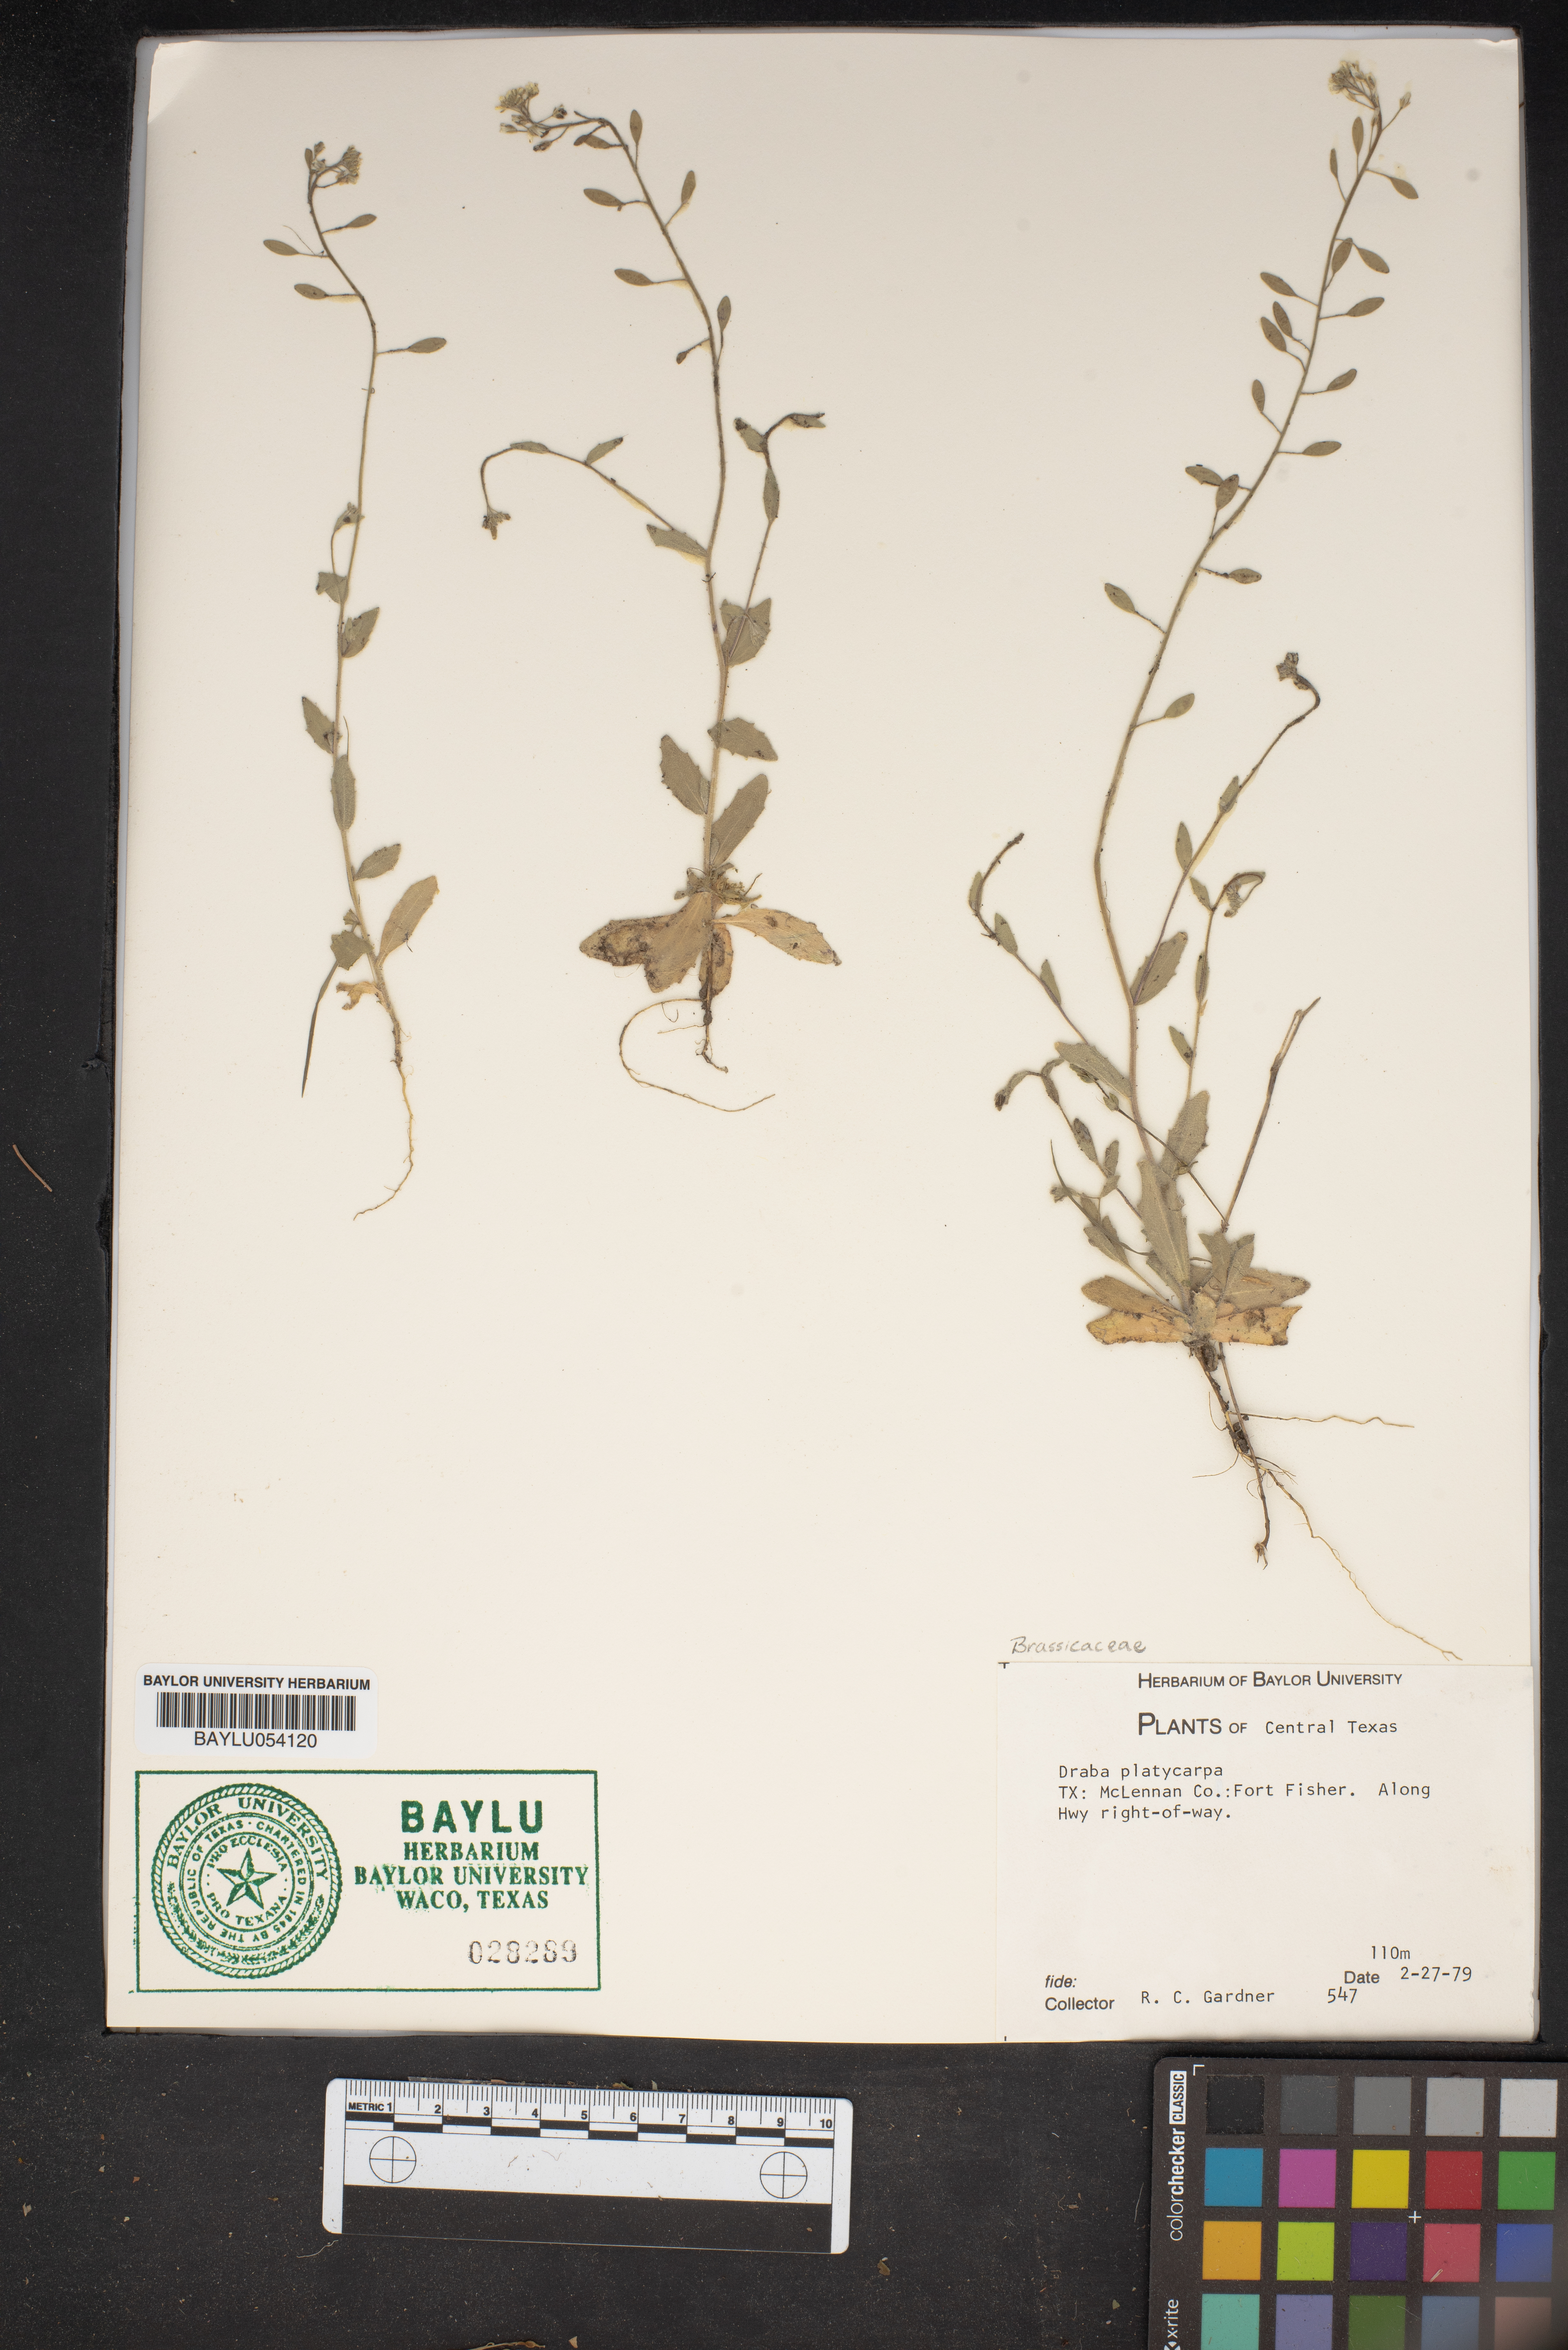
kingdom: Plantae
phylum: Tracheophyta
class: Magnoliopsida
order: Brassicales
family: Brassicaceae
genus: Tomostima
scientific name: Tomostima platycarpa
